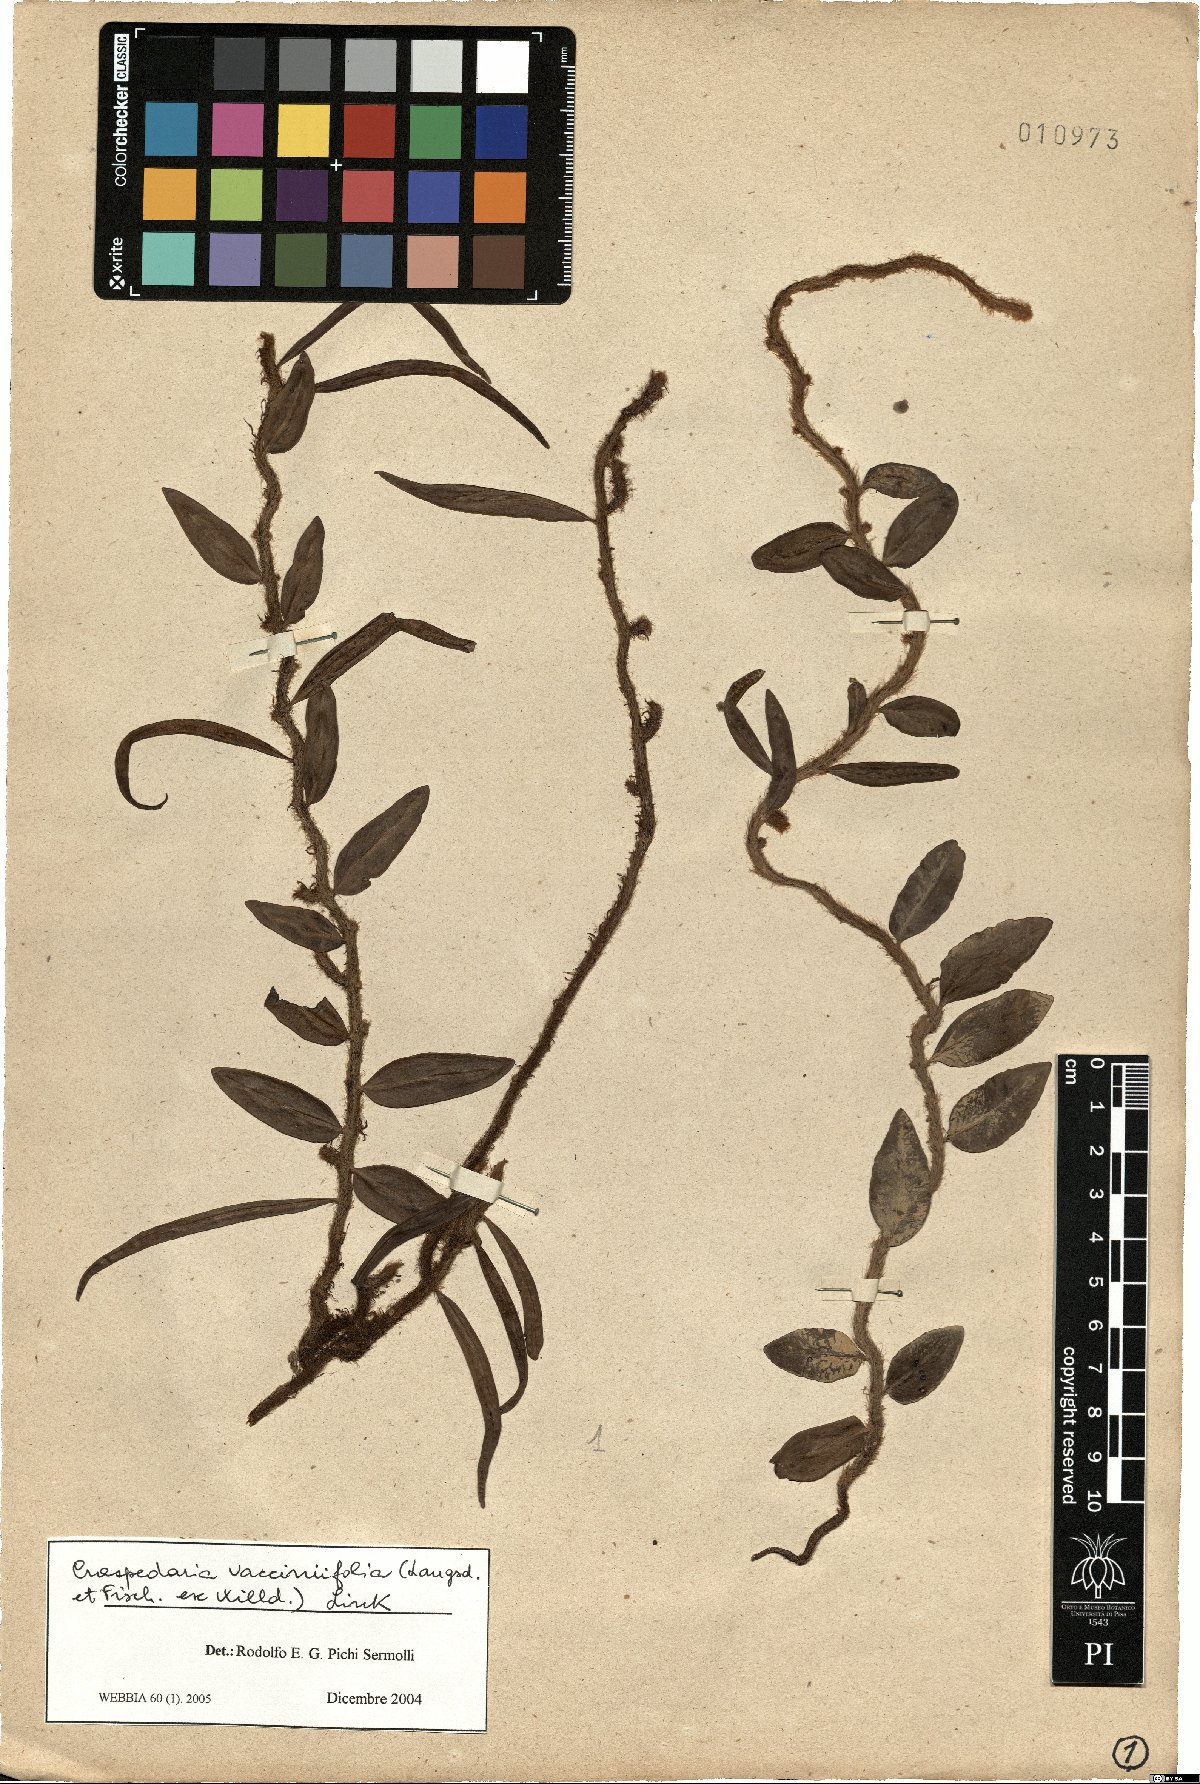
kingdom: Plantae
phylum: Tracheophyta
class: Polypodiopsida
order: Polypodiales
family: Polypodiaceae
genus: Microgramma
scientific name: Microgramma vaccinifolia
